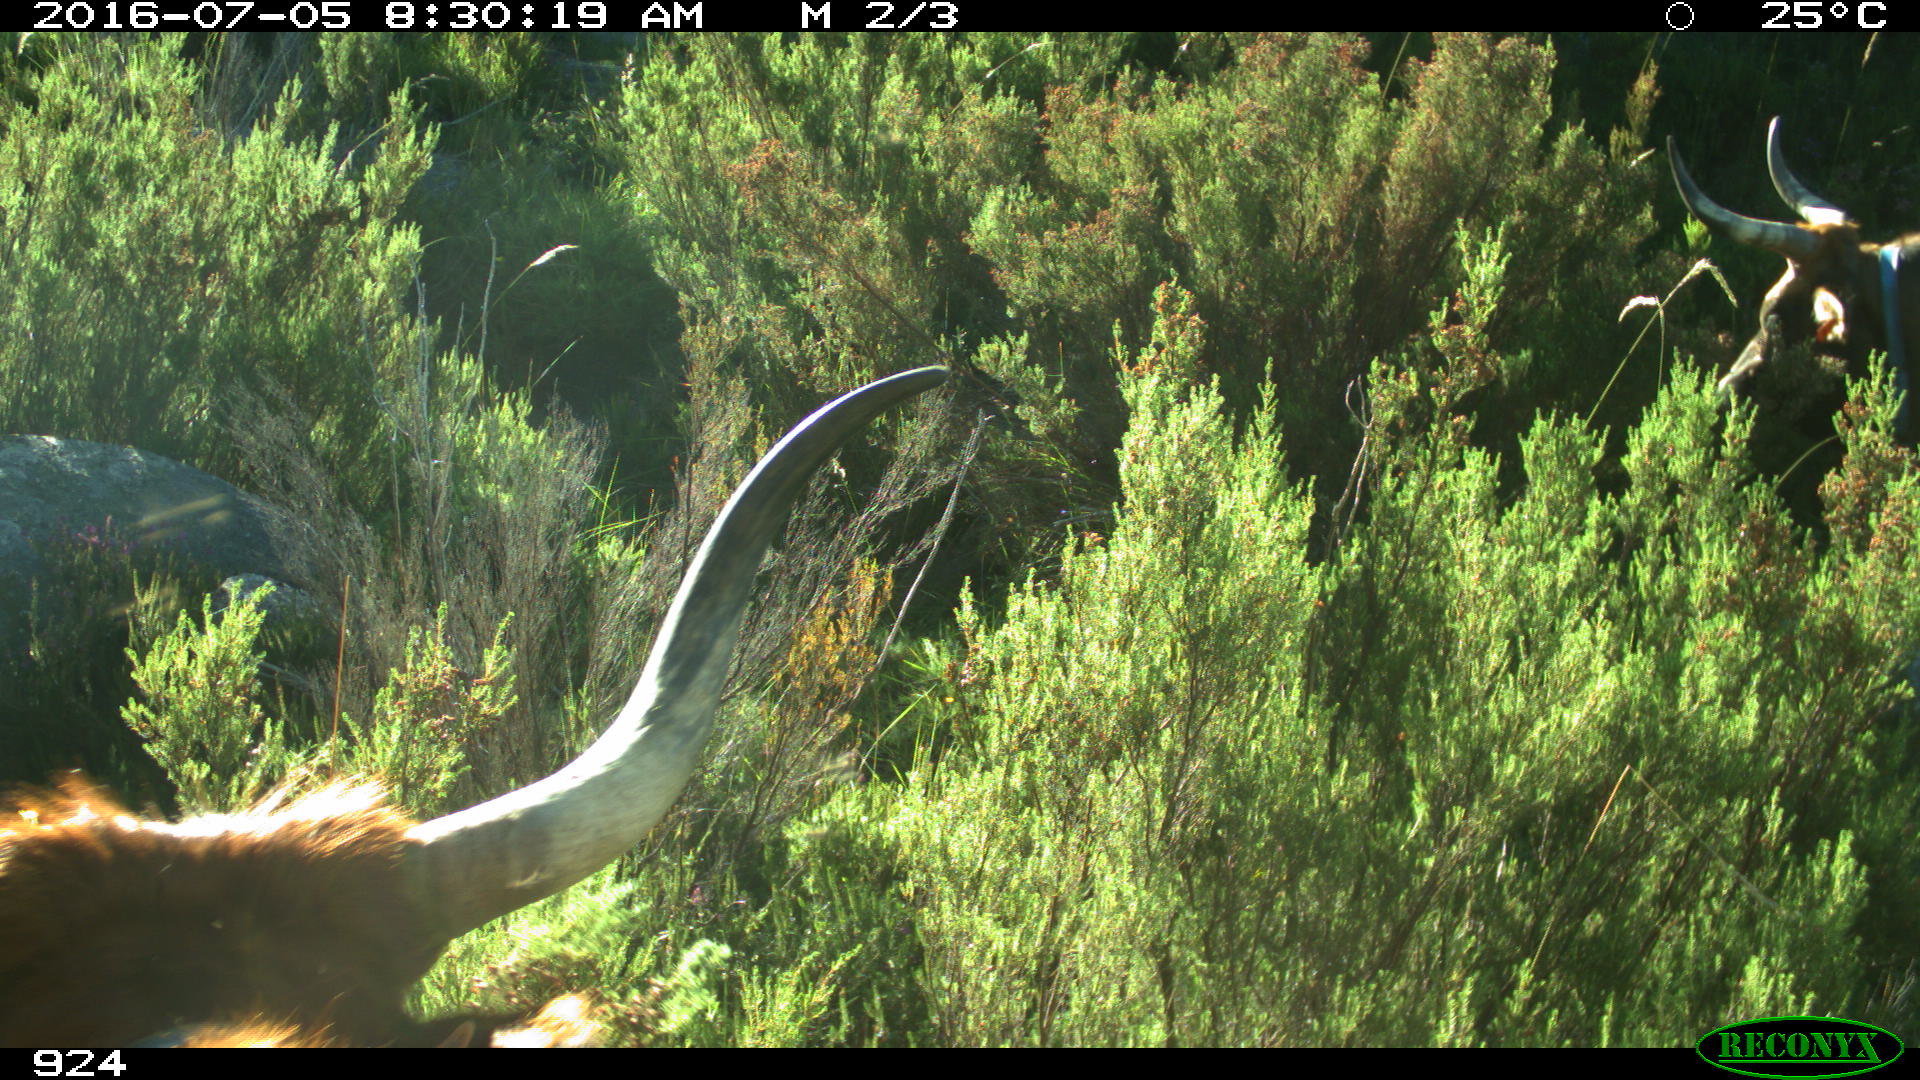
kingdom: Animalia
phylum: Chordata
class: Mammalia
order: Artiodactyla
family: Bovidae
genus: Bos
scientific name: Bos taurus
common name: Domesticated cattle
